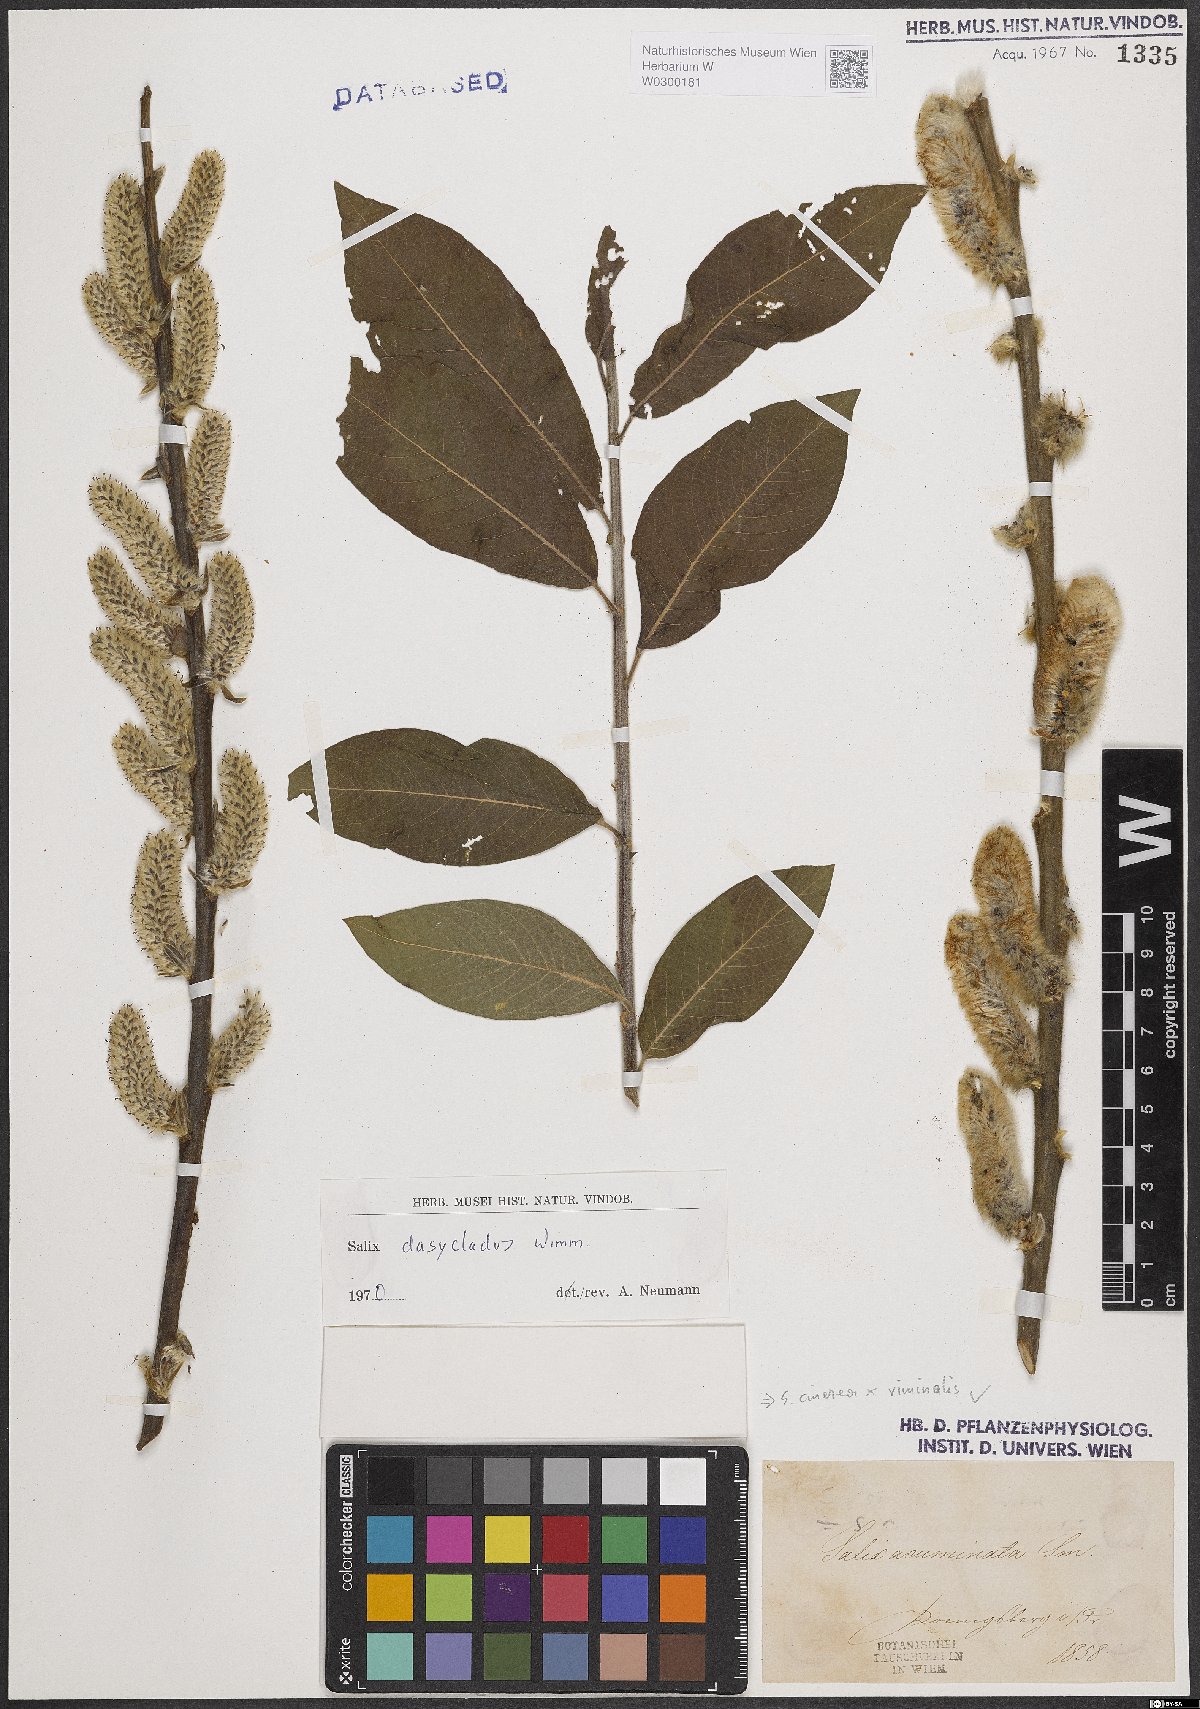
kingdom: Plantae
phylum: Tracheophyta
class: Magnoliopsida
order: Malpighiales
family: Salicaceae
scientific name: Salicaceae
